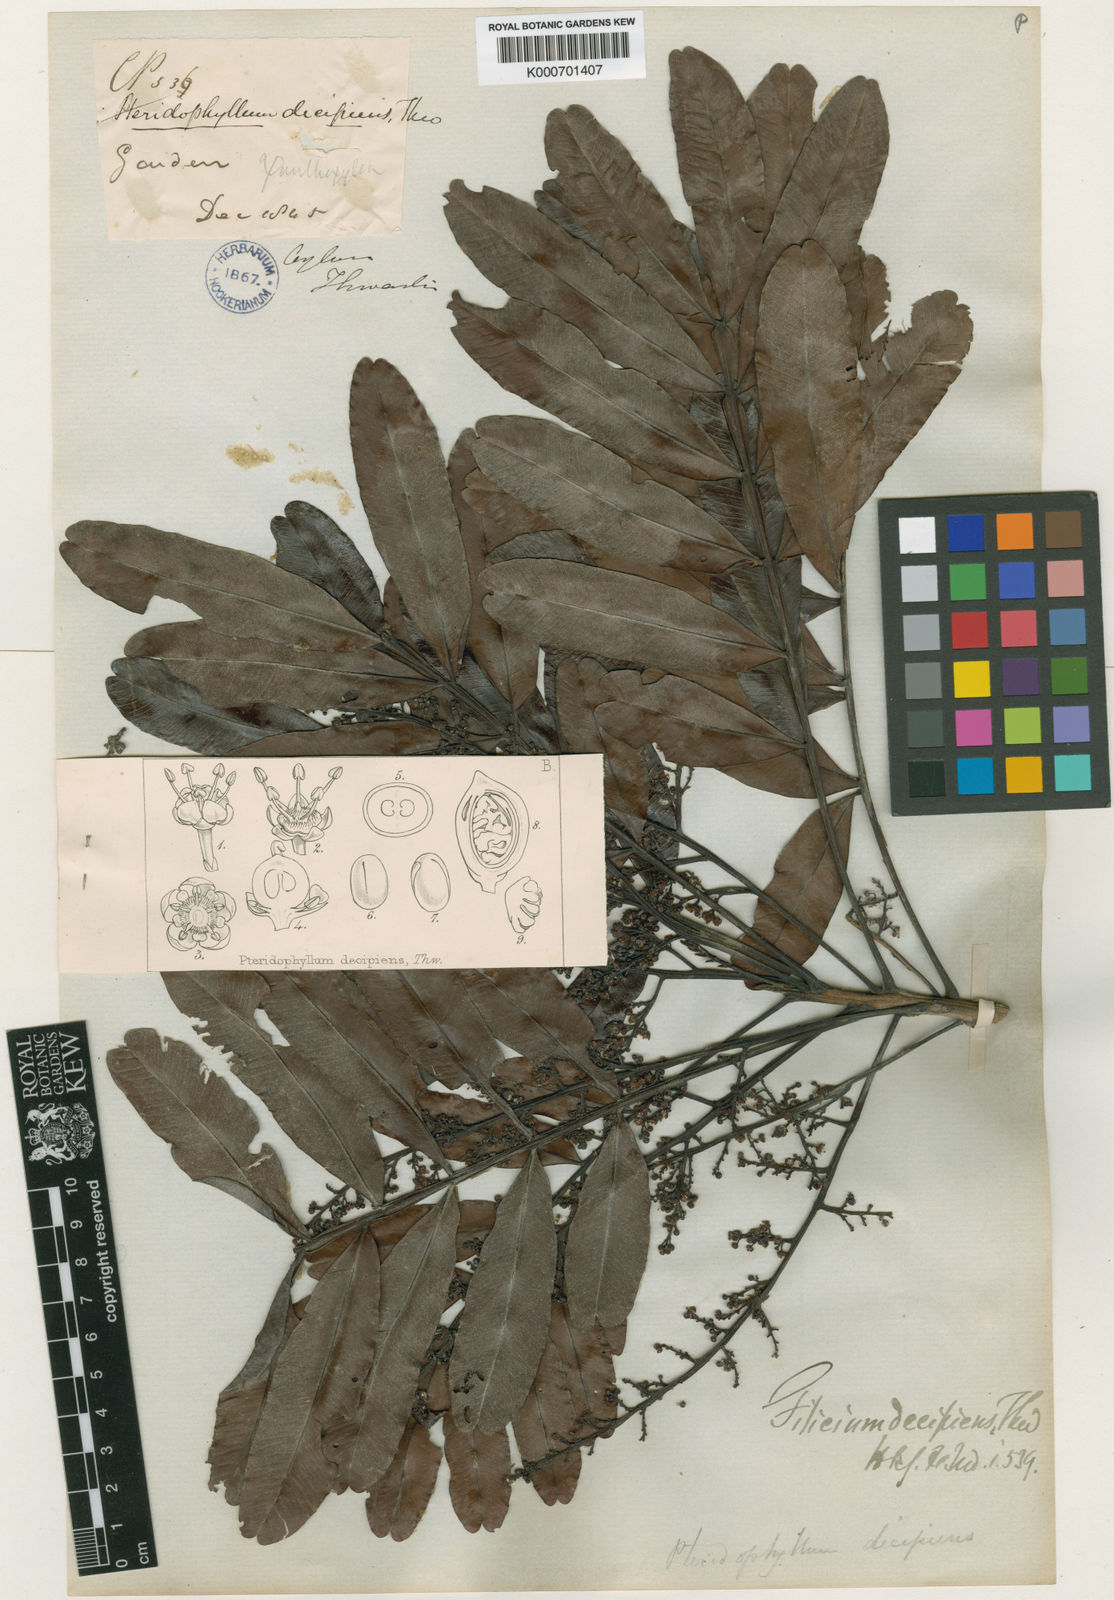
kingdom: Plantae
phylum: Tracheophyta
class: Magnoliopsida
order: Sapindales
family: Sapindaceae
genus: Filicium
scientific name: Filicium decipiens
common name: Ferntree
